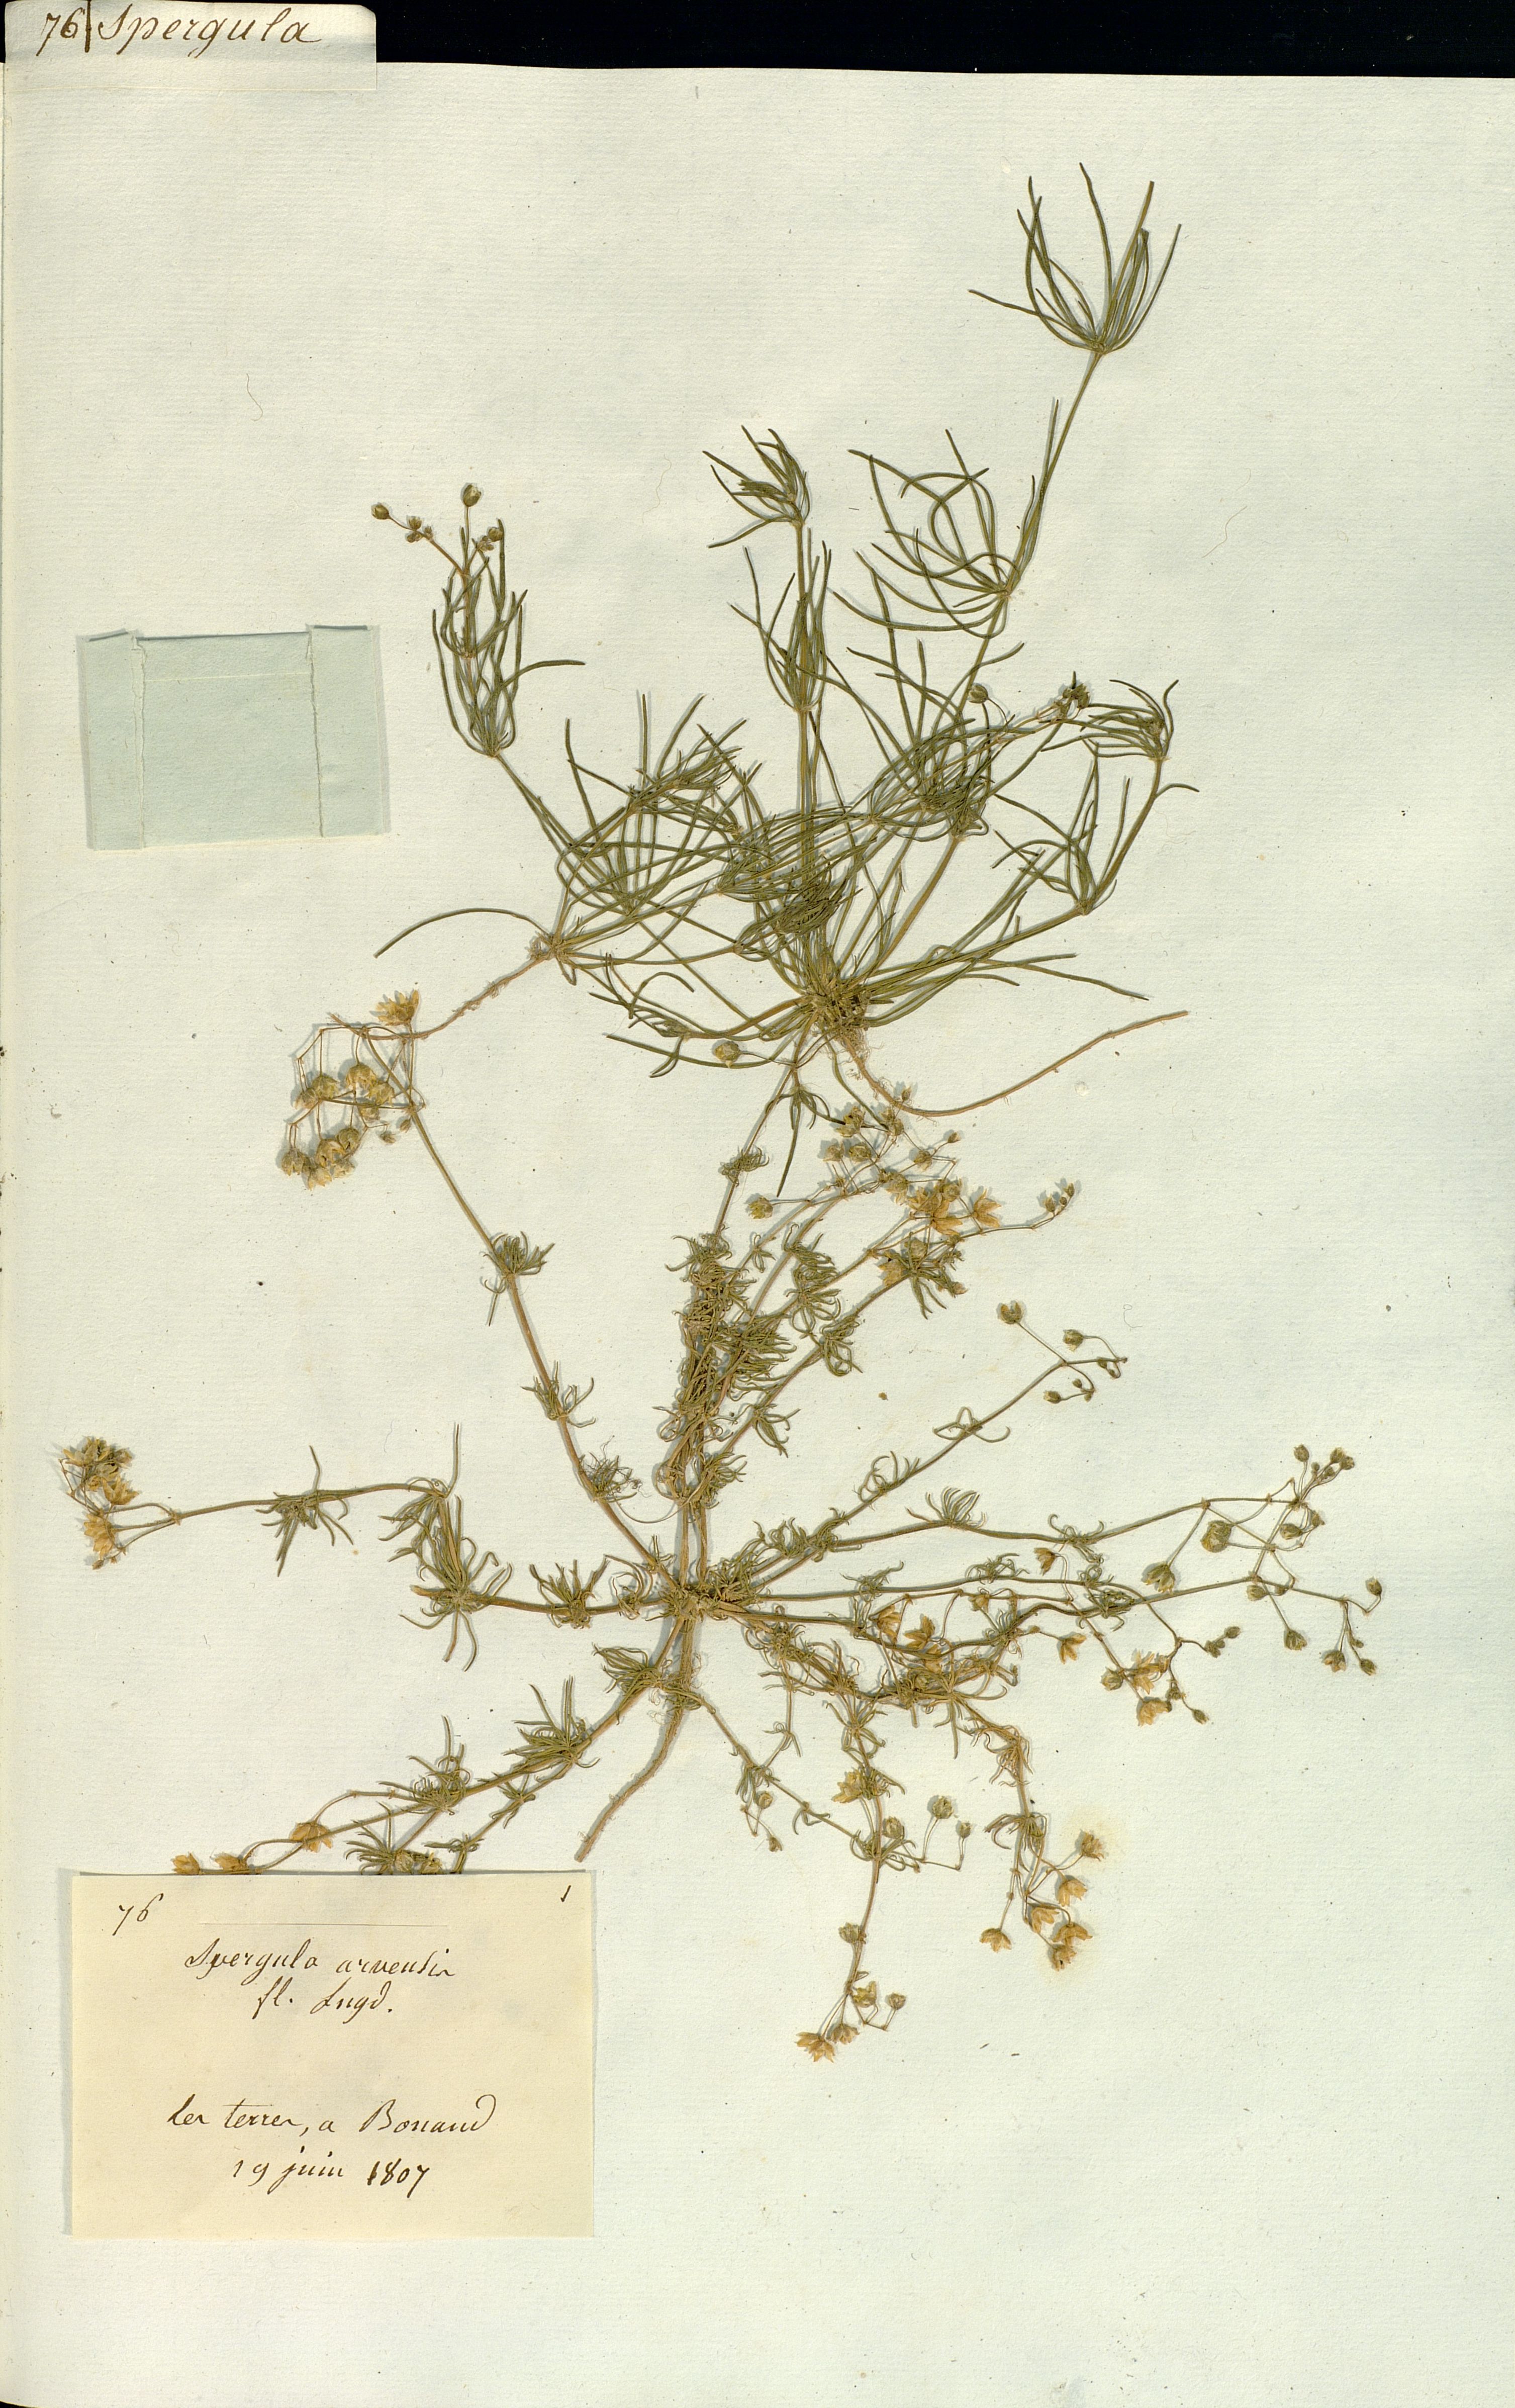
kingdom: Plantae
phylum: Tracheophyta
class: Magnoliopsida
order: Caryophyllales
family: Caryophyllaceae
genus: Spergula
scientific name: Spergula arvensis
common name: Corn spurrey
